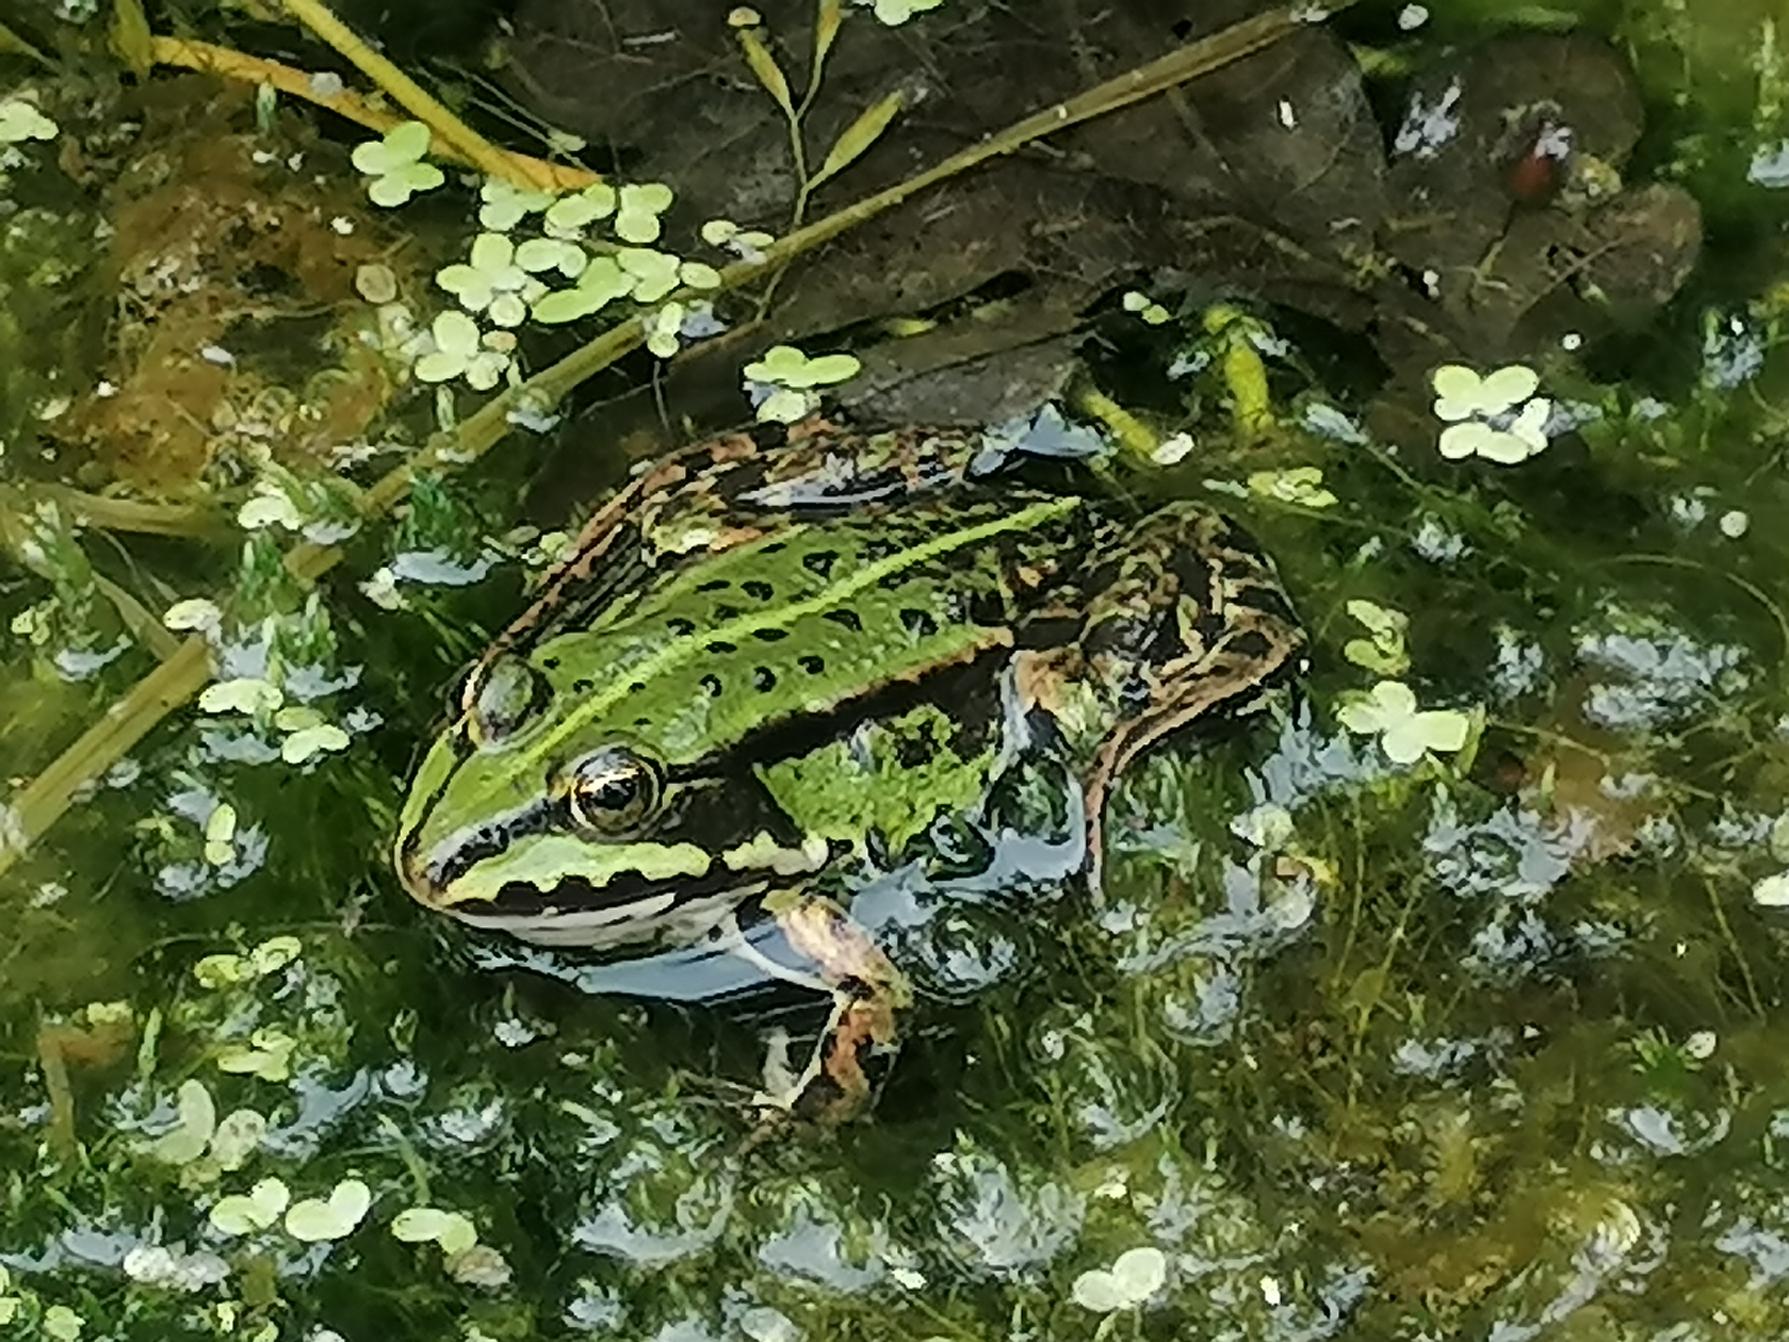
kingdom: Animalia
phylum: Chordata
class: Amphibia
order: Anura
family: Ranidae
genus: Pelophylax
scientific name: Pelophylax lessonae
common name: Grøn frø
